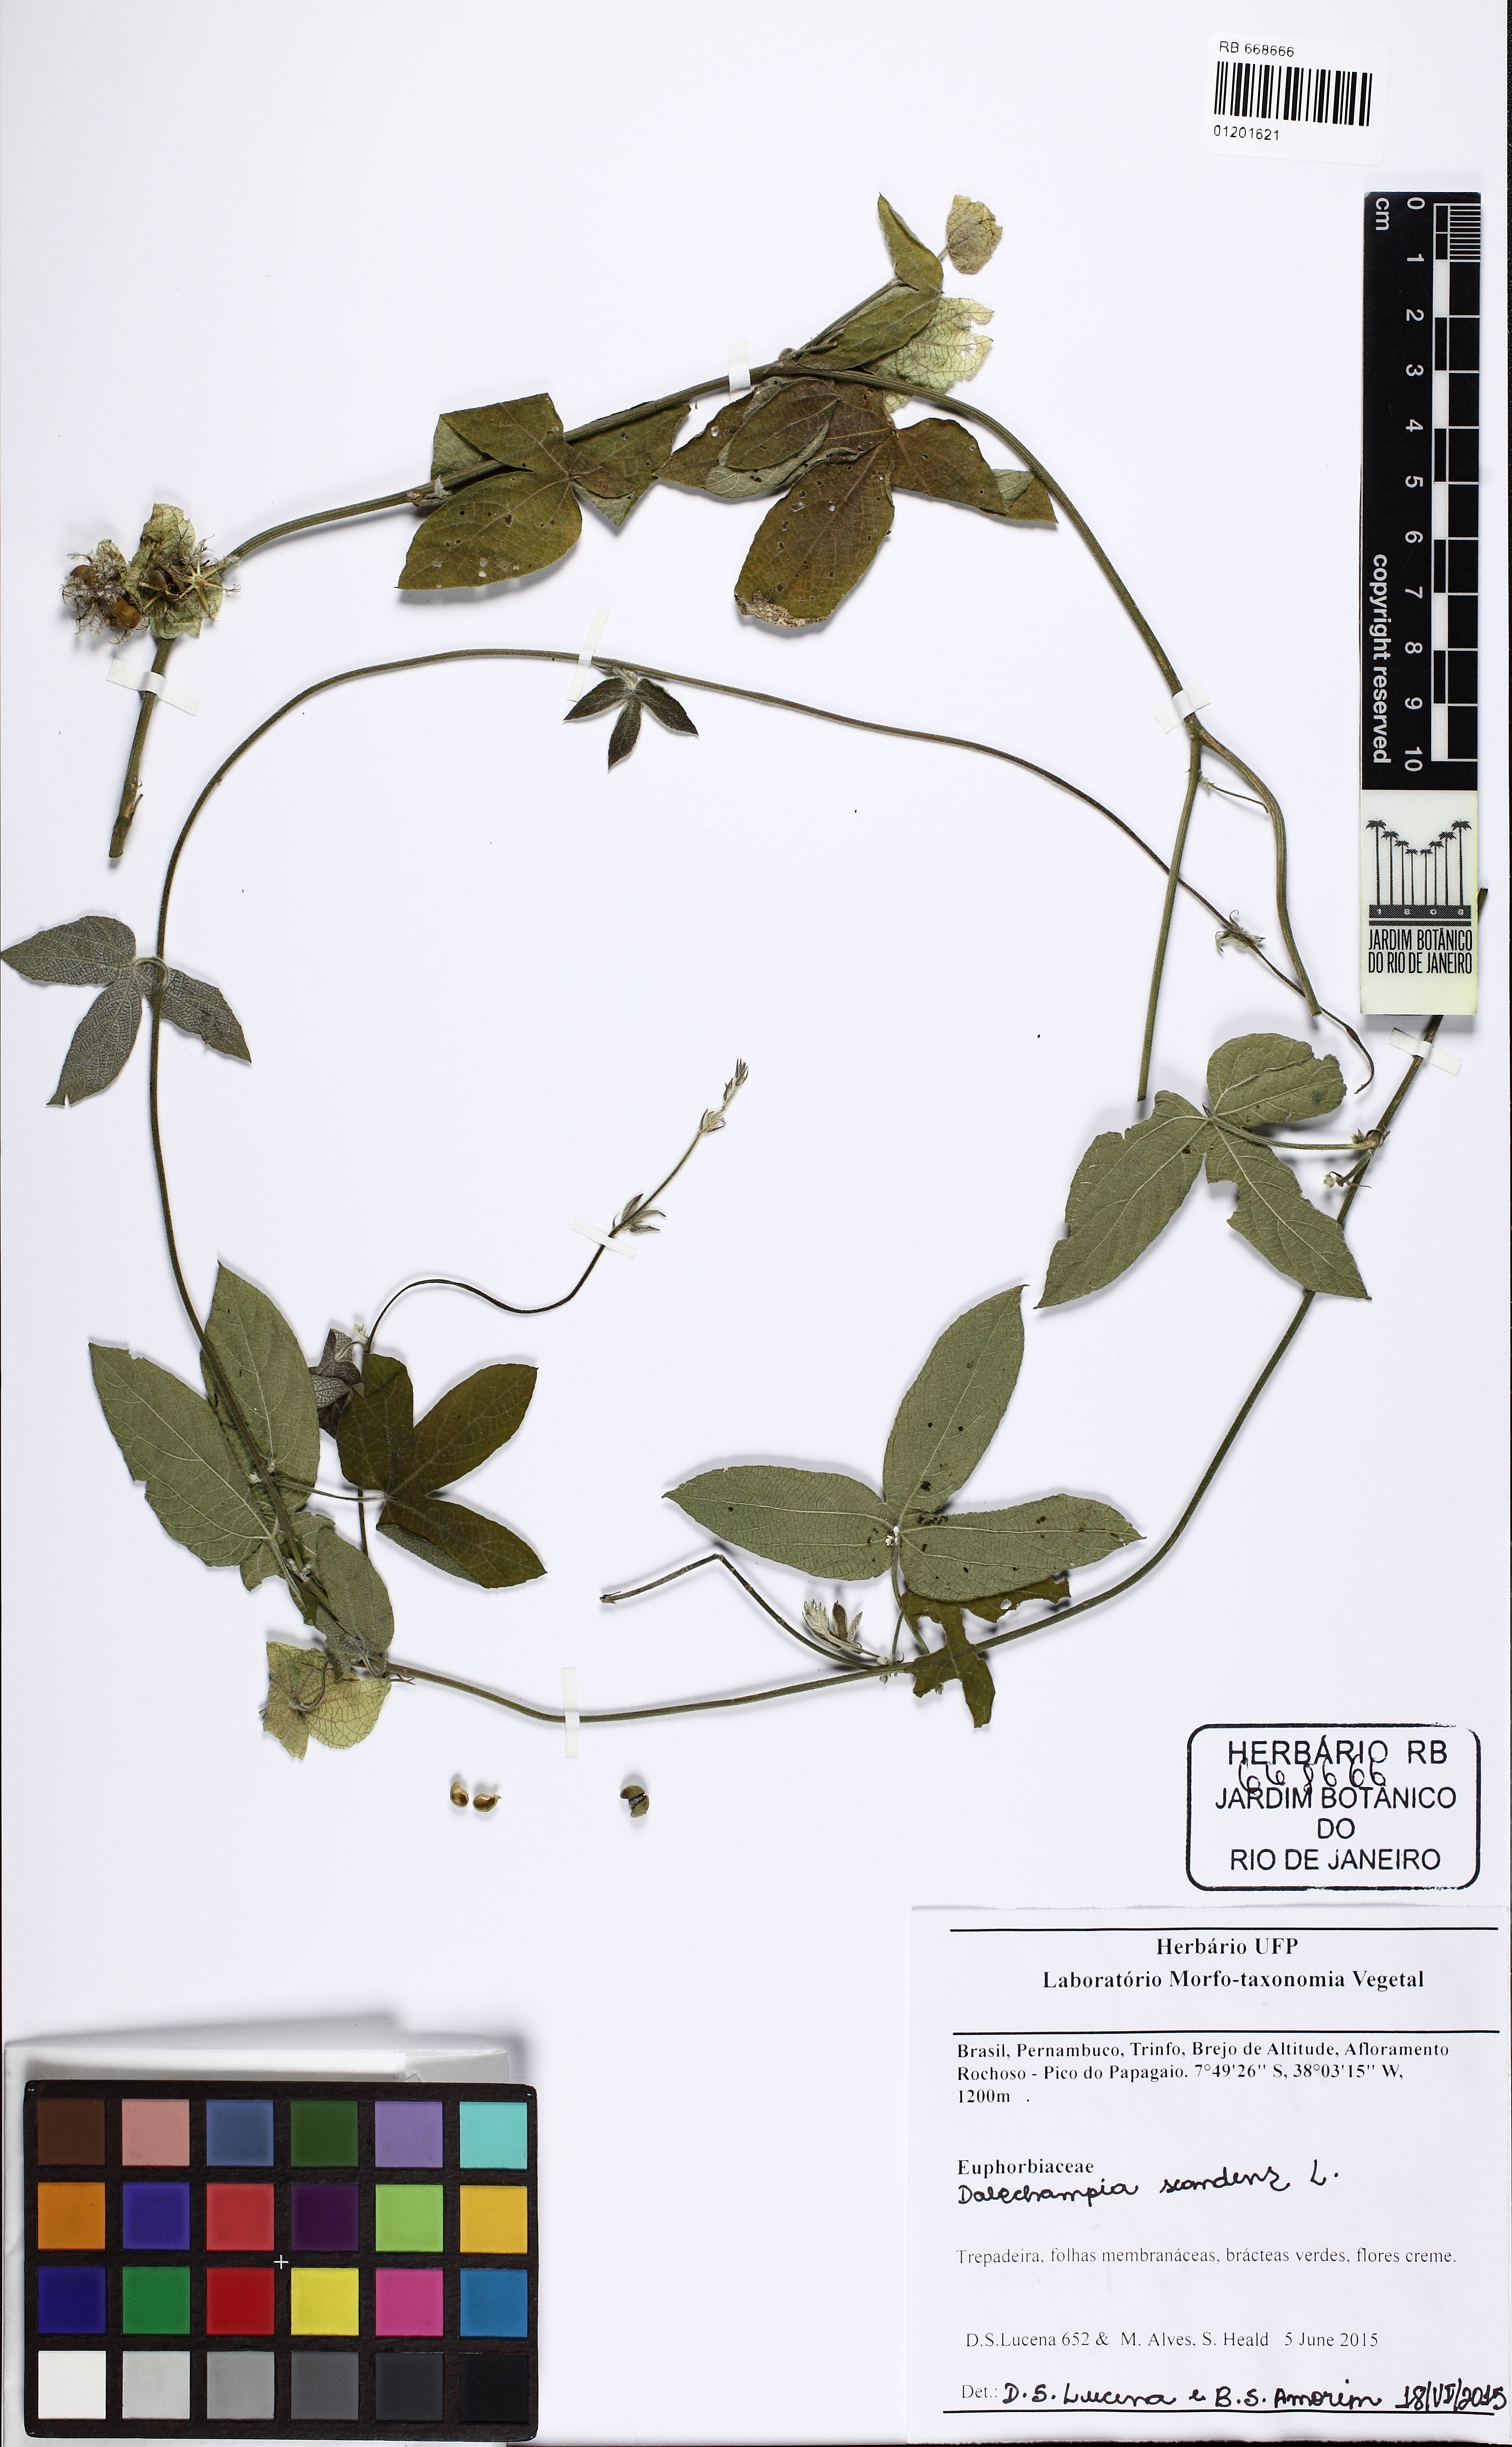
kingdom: Plantae
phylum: Tracheophyta
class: Magnoliopsida
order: Malpighiales
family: Euphorbiaceae
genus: Dalechampia
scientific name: Dalechampia scandens
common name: Spurgecreeper
